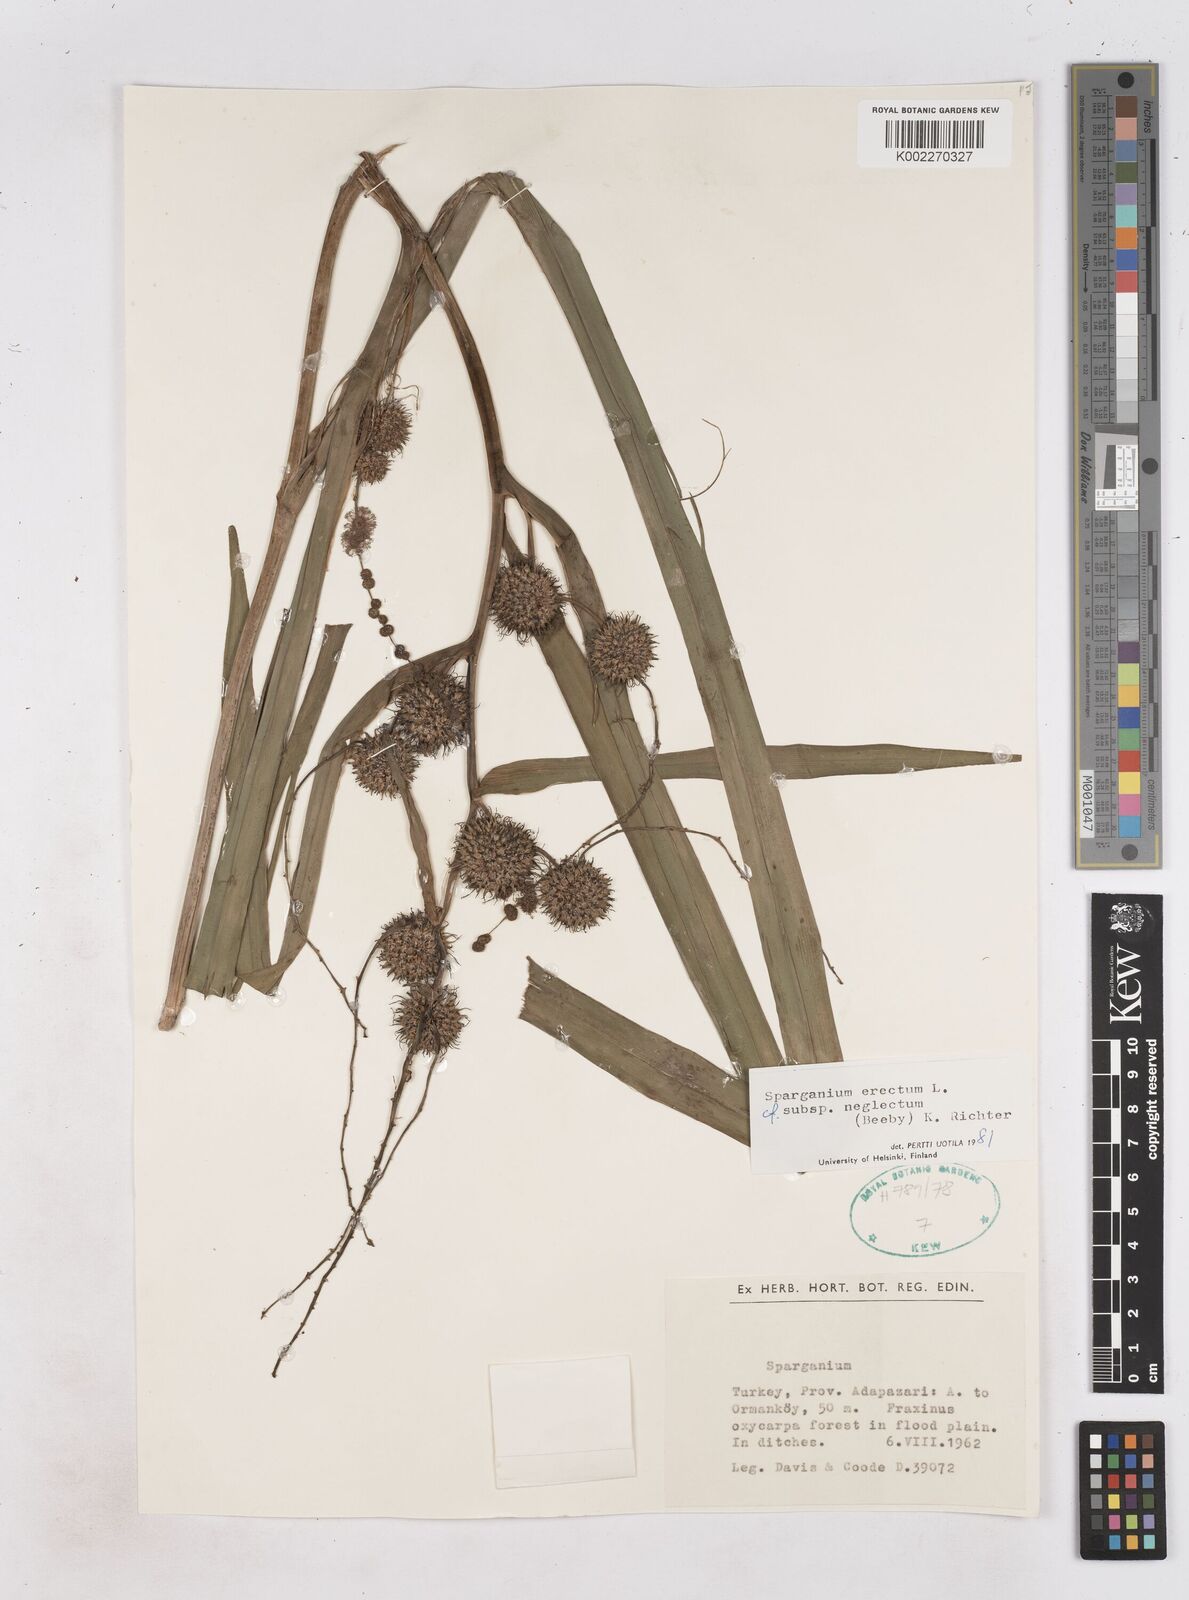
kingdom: Plantae
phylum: Tracheophyta
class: Liliopsida
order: Poales
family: Typhaceae
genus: Sparganium
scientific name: Sparganium erectum
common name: Branched bur-reed
